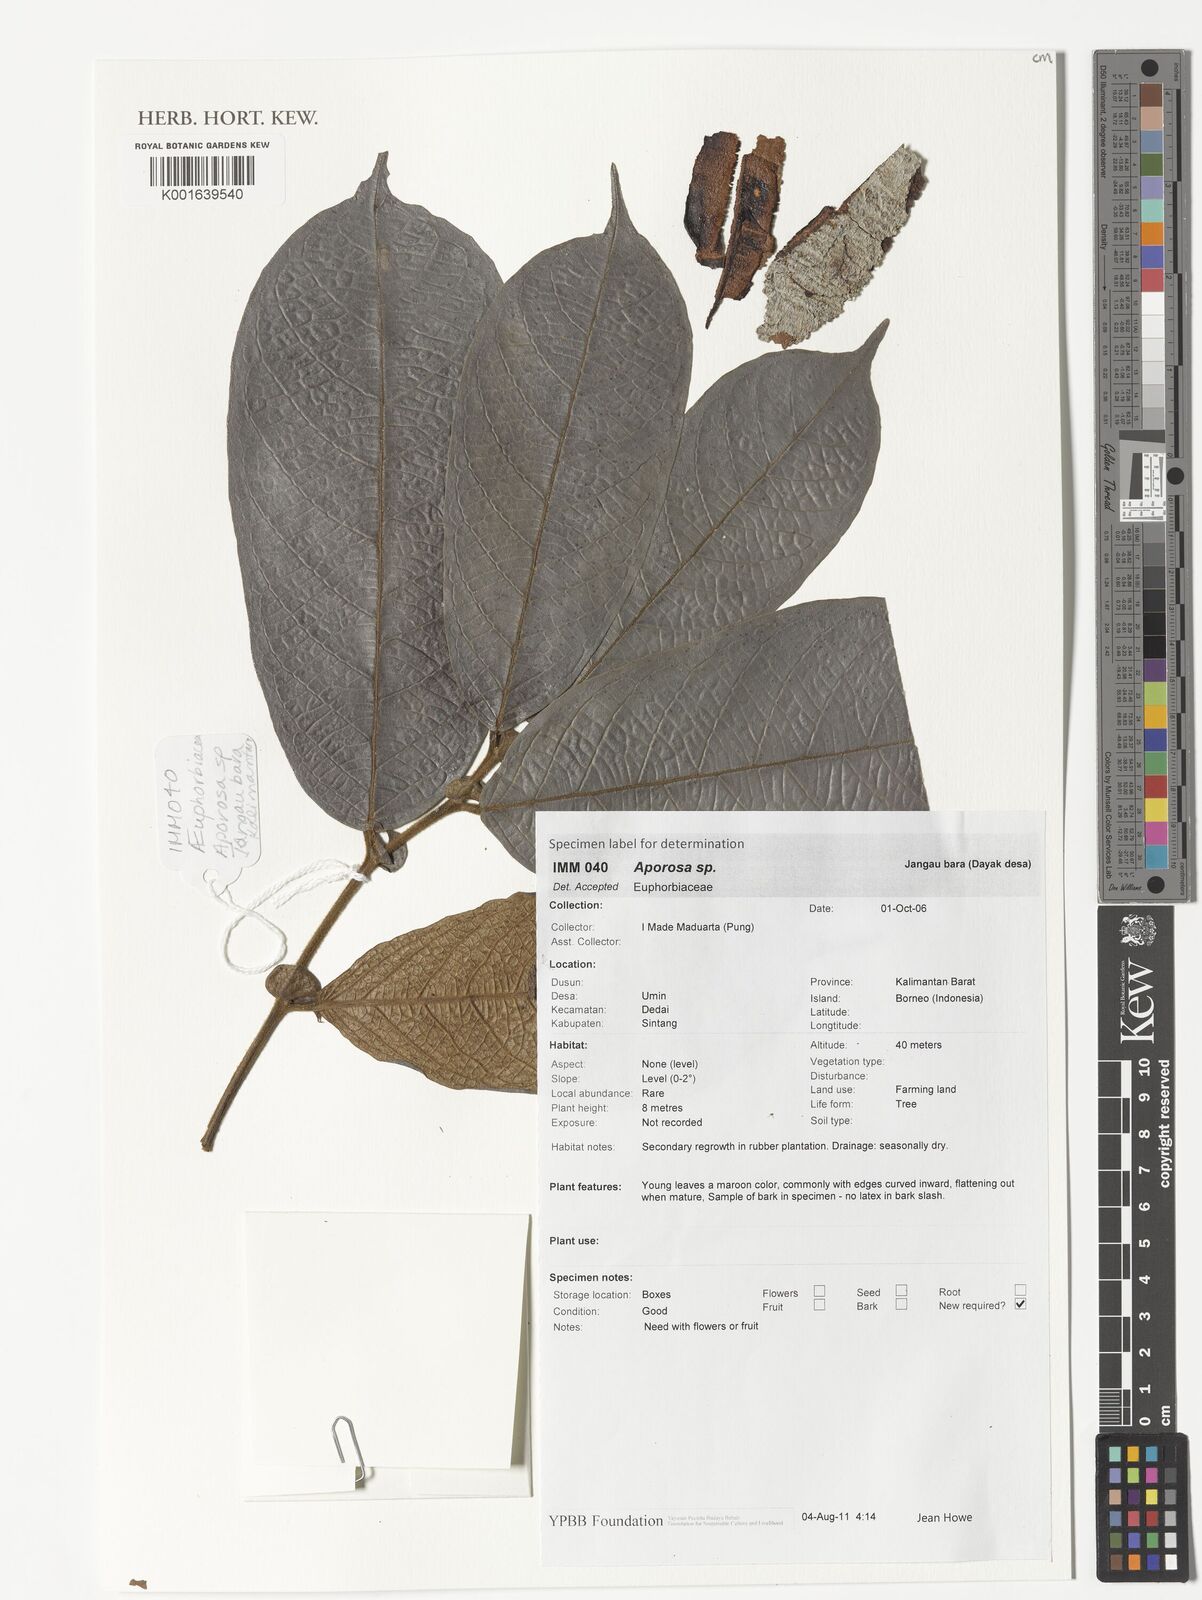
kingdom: Plantae
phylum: Tracheophyta
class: Magnoliopsida
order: Malpighiales
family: Phyllanthaceae
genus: Aporosa
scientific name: Aporosa
